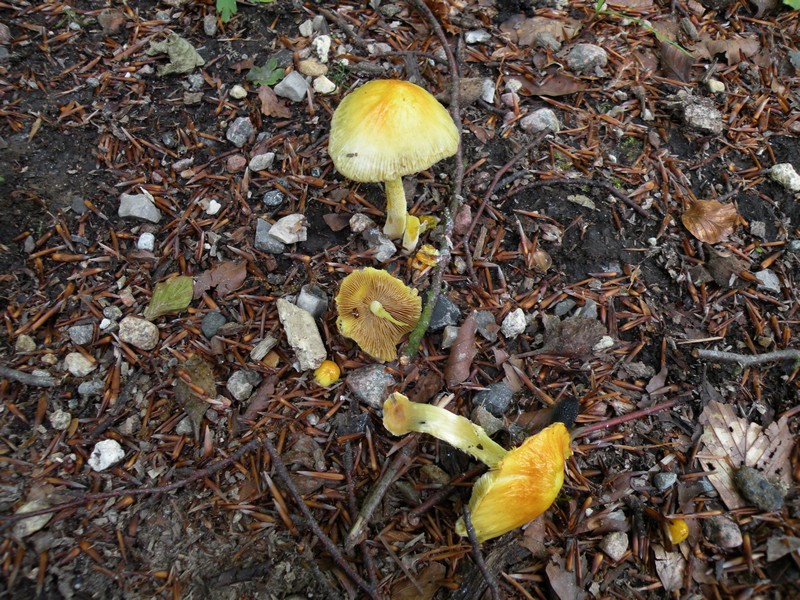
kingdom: Fungi
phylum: Basidiomycota
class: Agaricomycetes
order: Agaricales
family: Bolbitiaceae
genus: Bolbitius
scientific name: Bolbitius titubans
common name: almindelig gulhat
